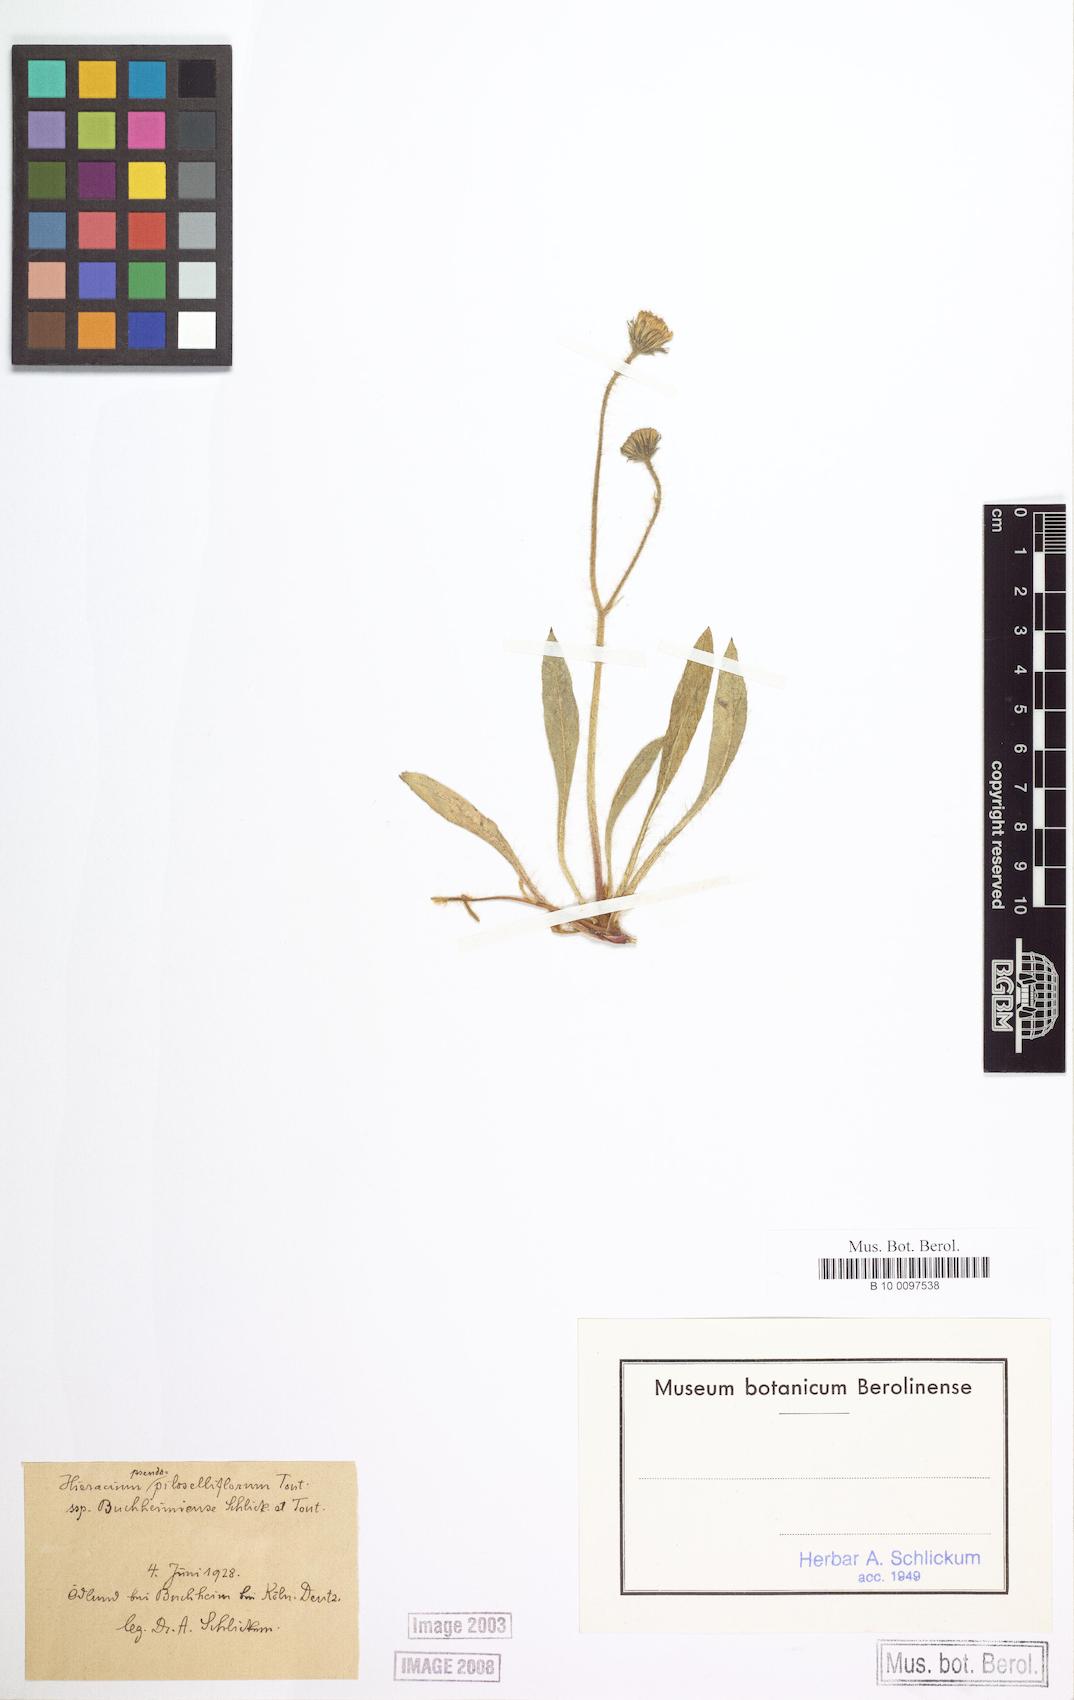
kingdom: Plantae
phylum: Tracheophyta
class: Magnoliopsida
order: Asterales
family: Asteraceae
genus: Pilosella
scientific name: Pilosella piloselliflora
